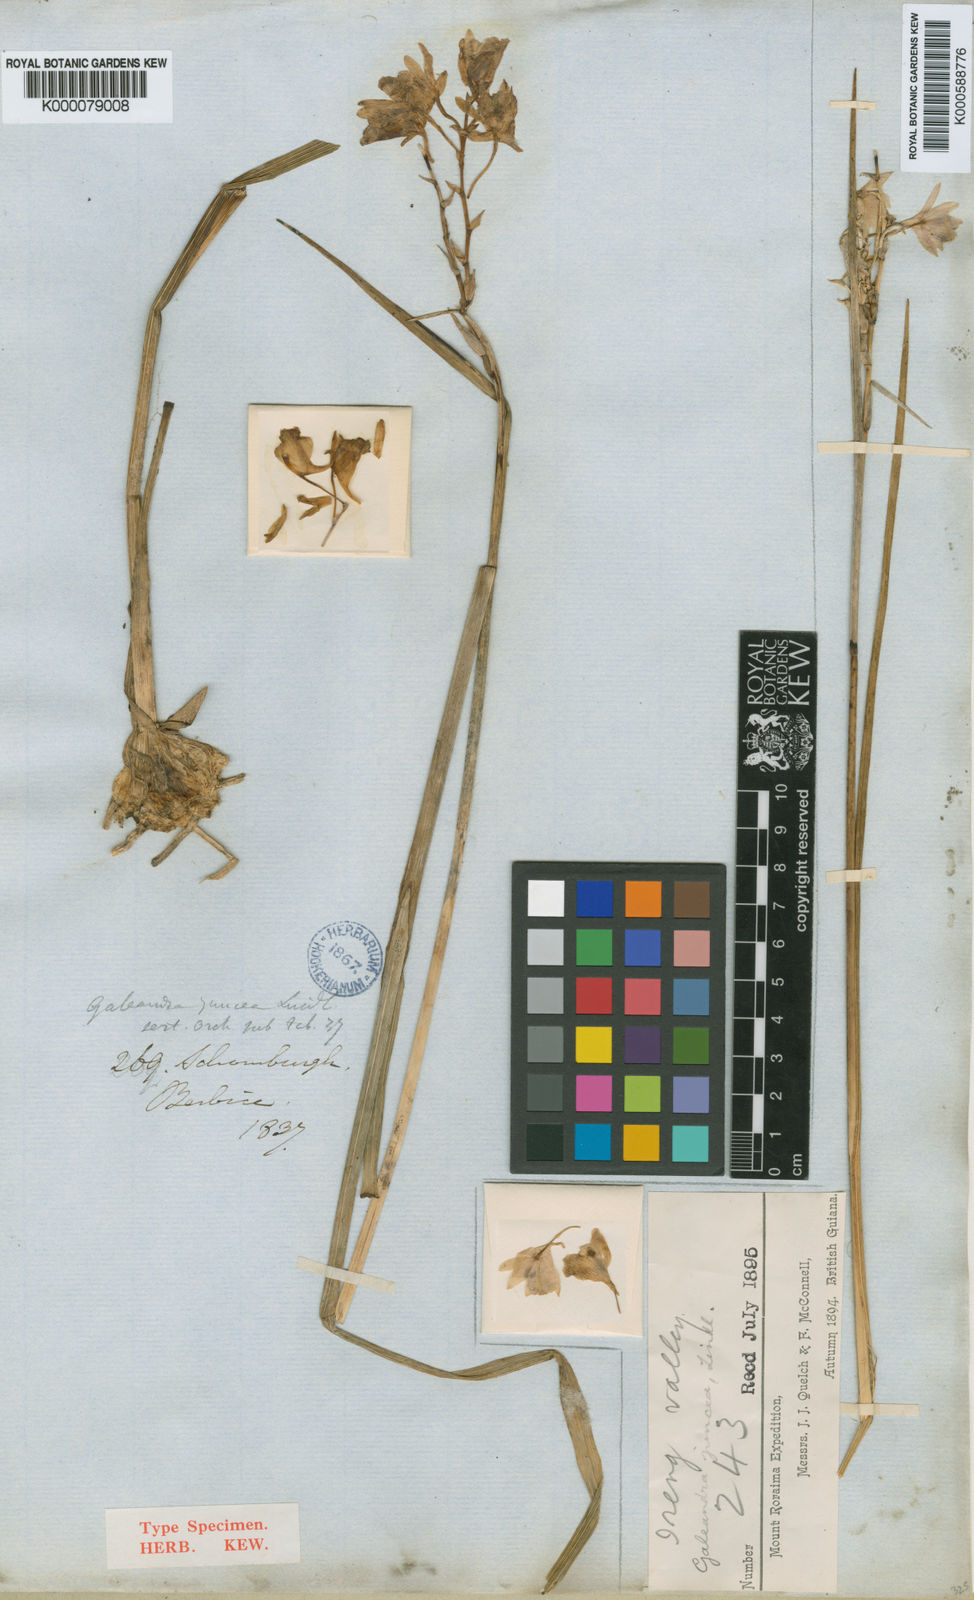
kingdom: Plantae
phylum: Tracheophyta
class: Liliopsida
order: Asparagales
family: Orchidaceae
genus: Galeandra
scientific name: Galeandra styllomisantha
